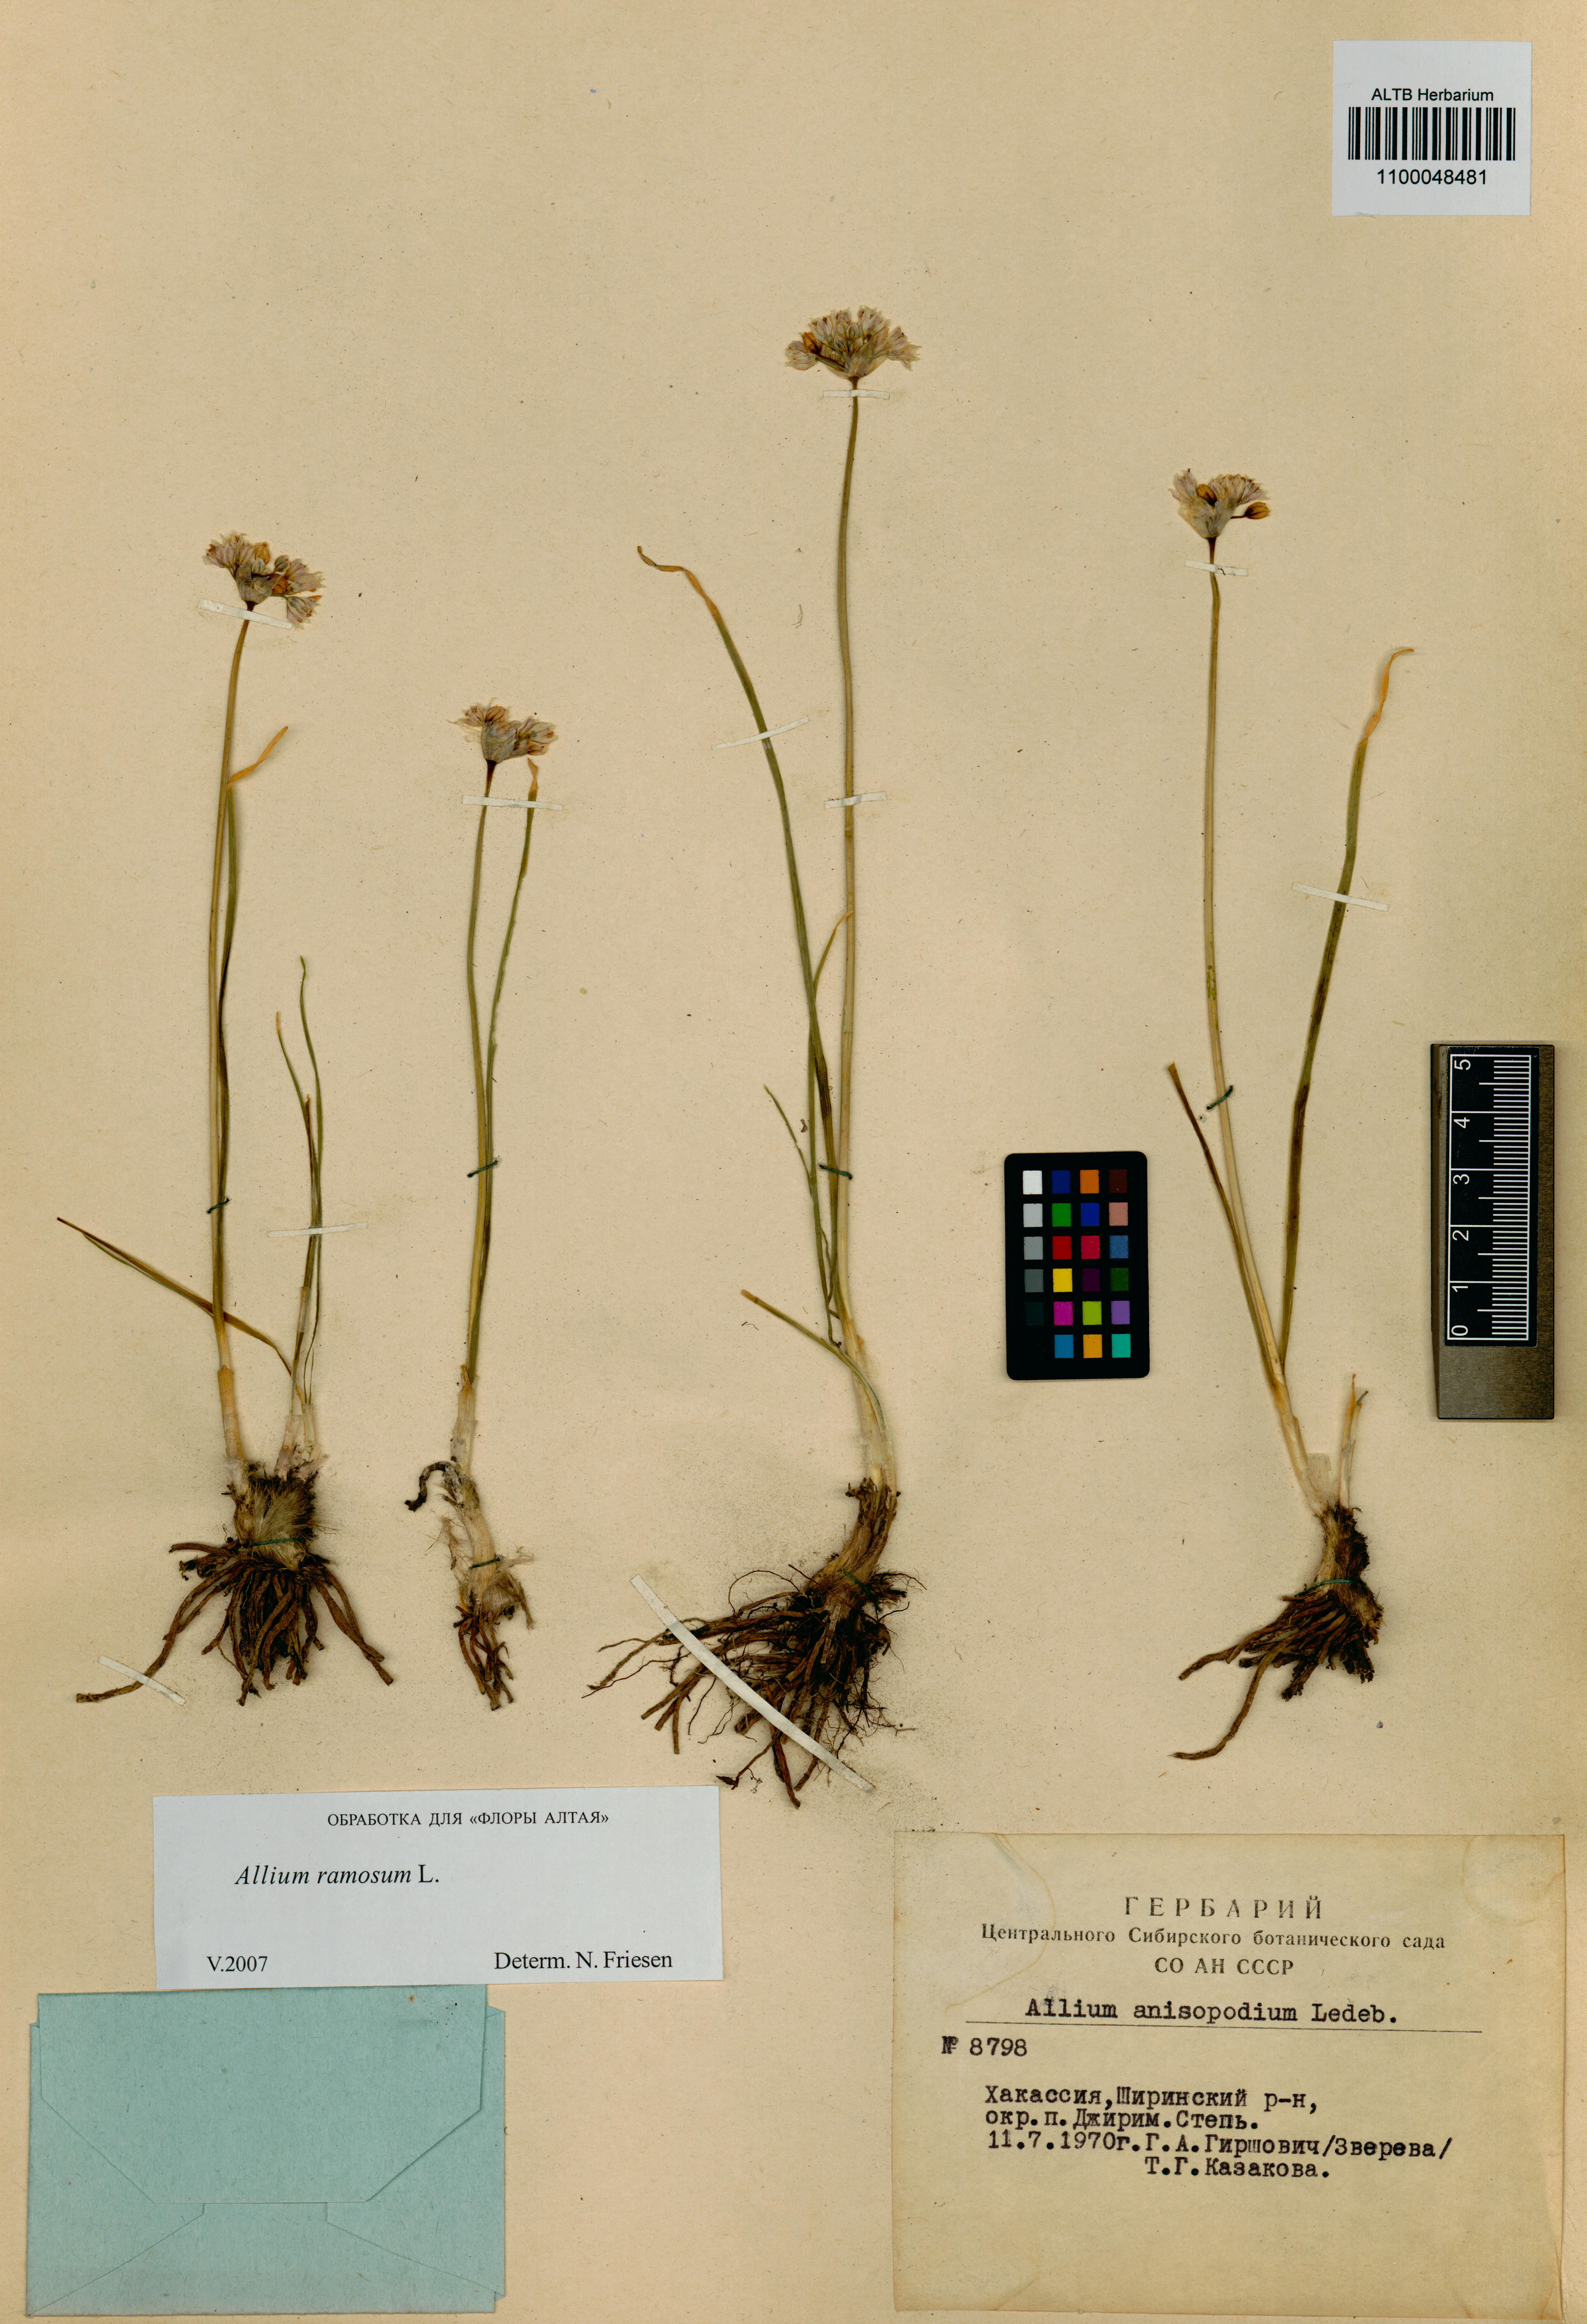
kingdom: Plantae
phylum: Tracheophyta
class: Liliopsida
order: Asparagales
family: Amaryllidaceae
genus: Allium
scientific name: Allium ramosum
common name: Fragrant garlic
